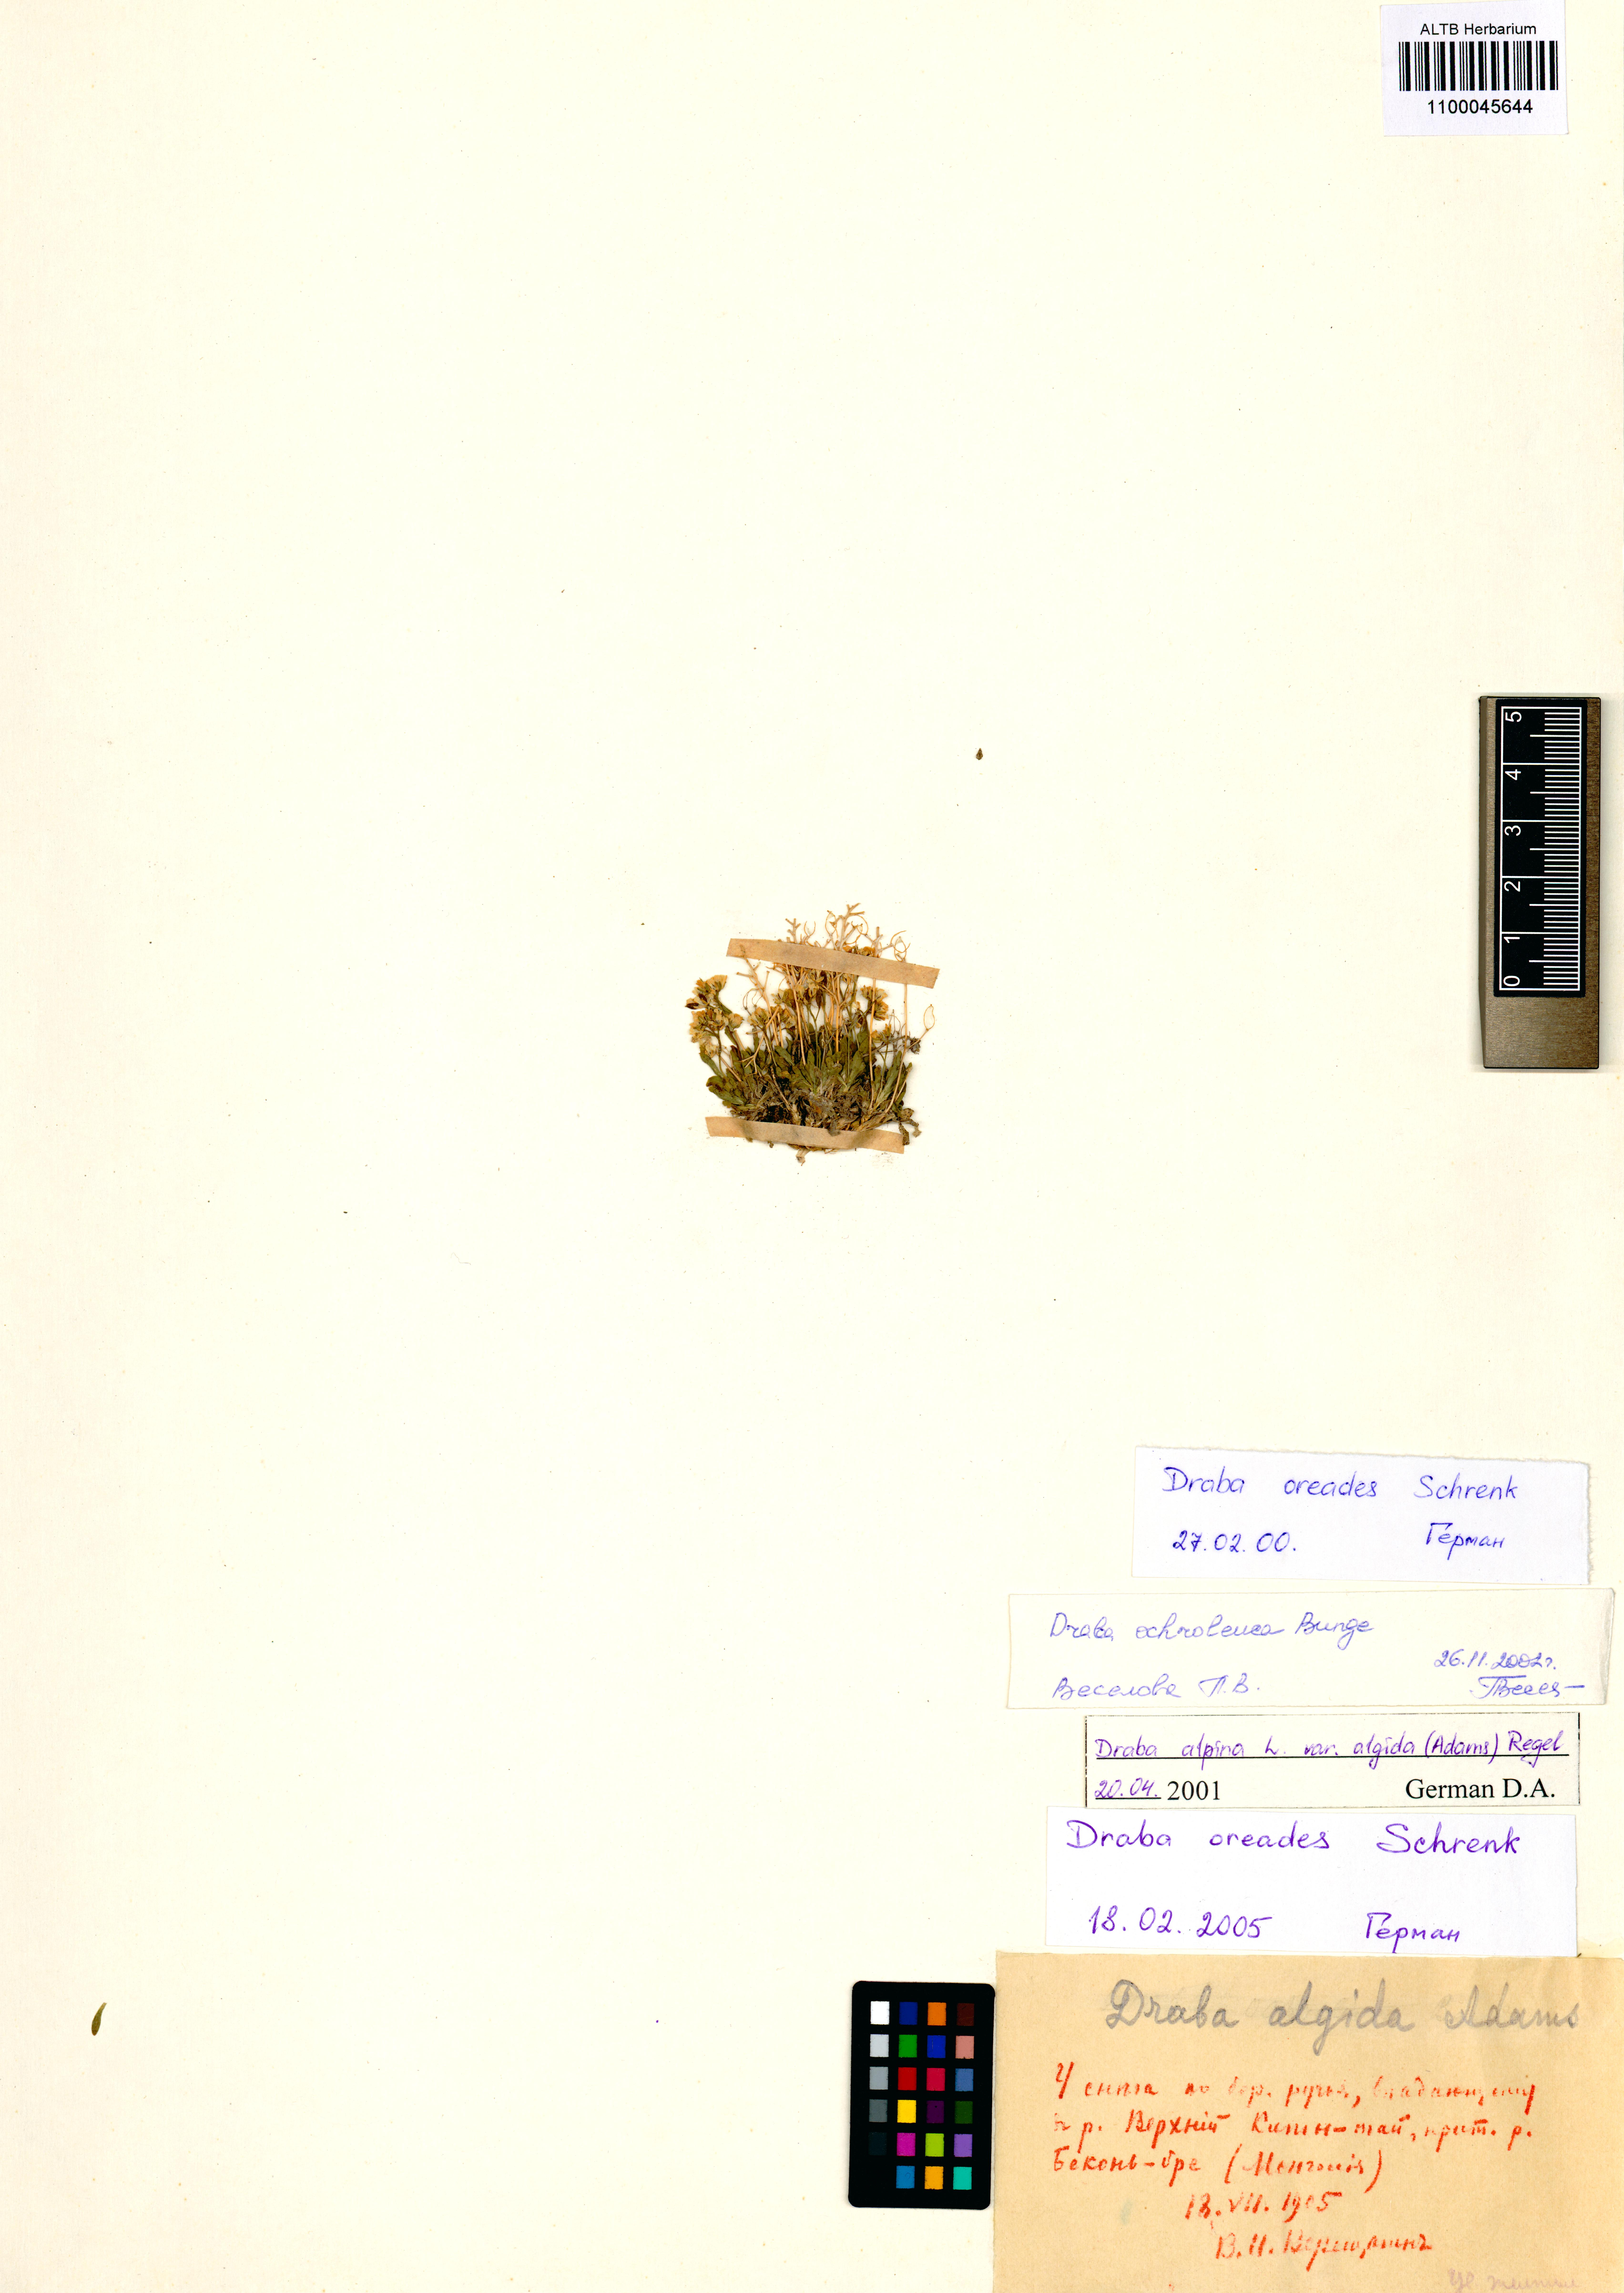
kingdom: Plantae
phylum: Tracheophyta
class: Magnoliopsida
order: Brassicales
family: Brassicaceae
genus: Draba
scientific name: Draba oreades
